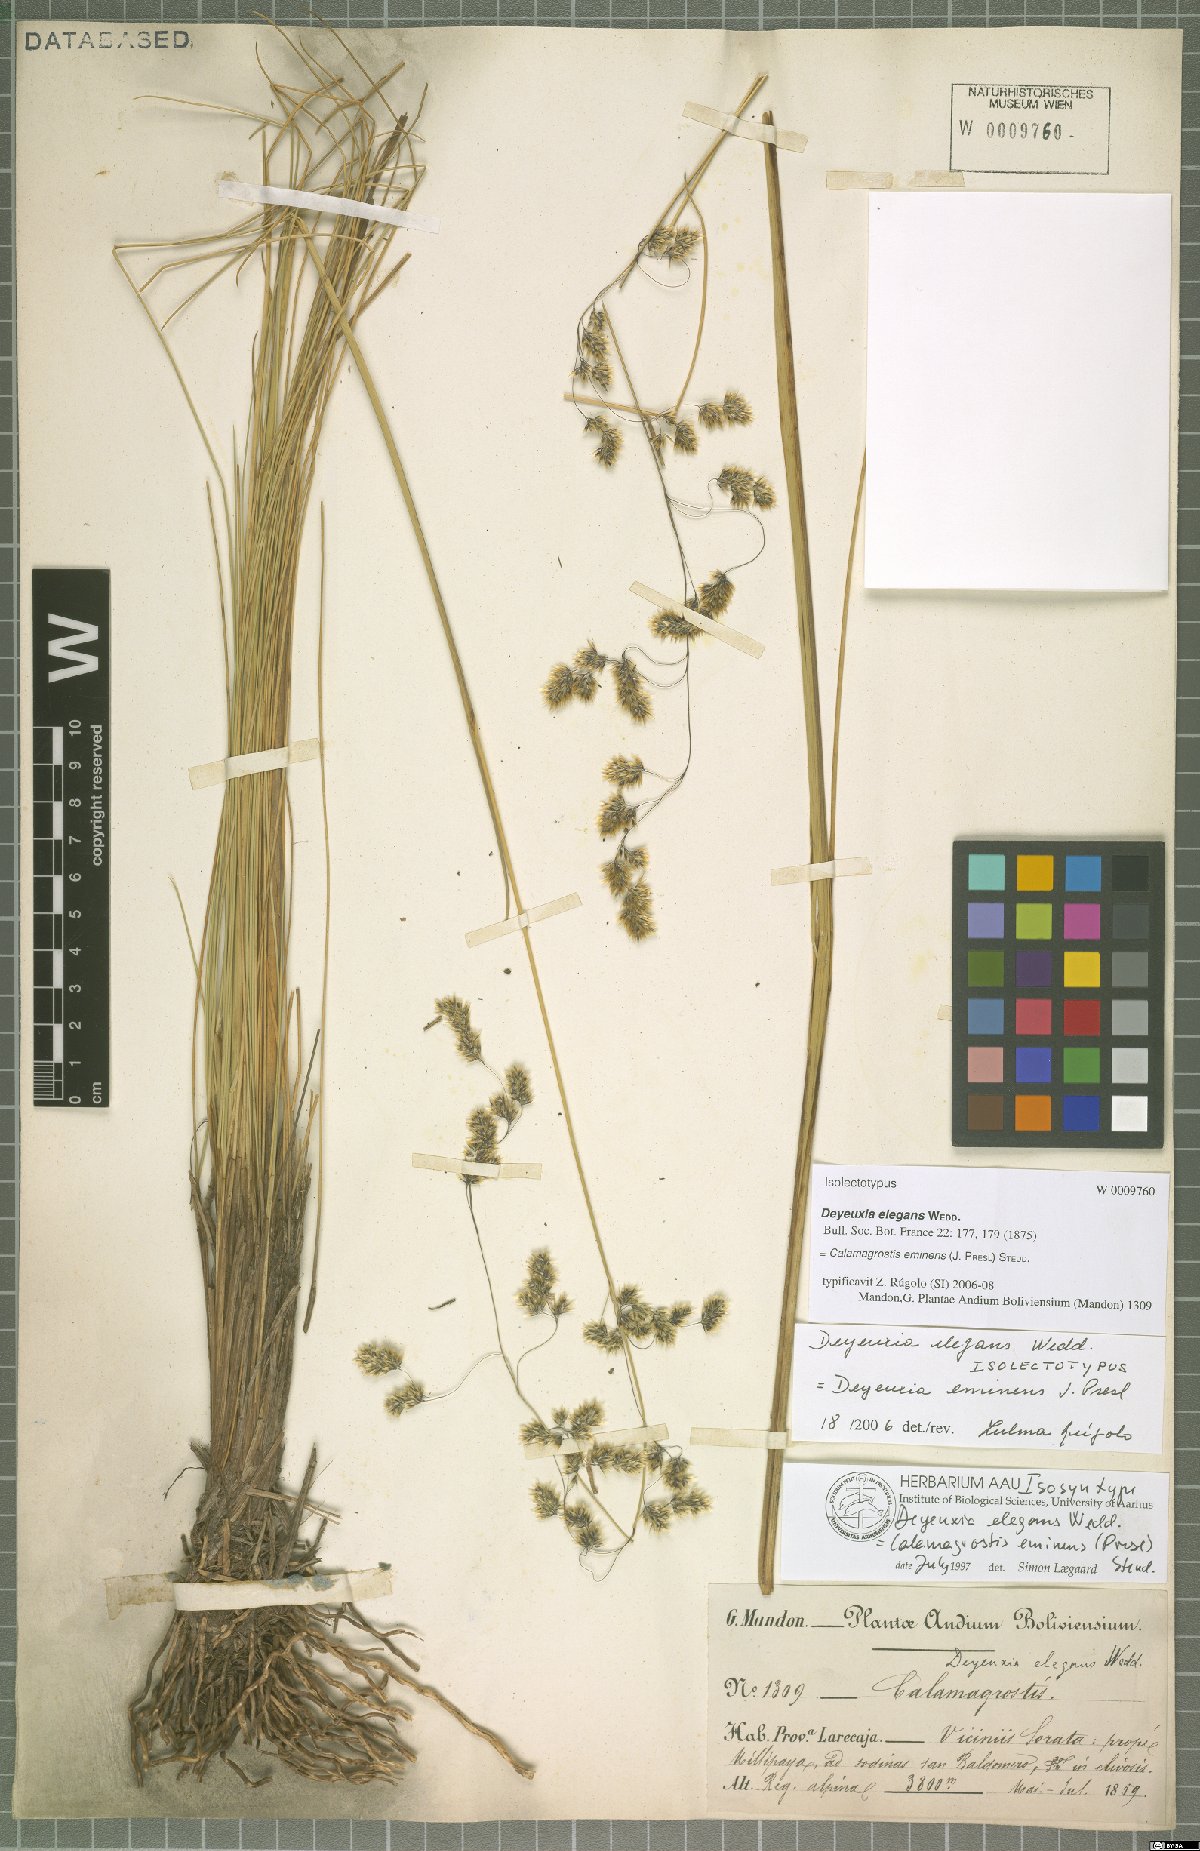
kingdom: Plantae
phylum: Tracheophyta
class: Liliopsida
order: Poales
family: Poaceae
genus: Deschampsia
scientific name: Deschampsia eminens
